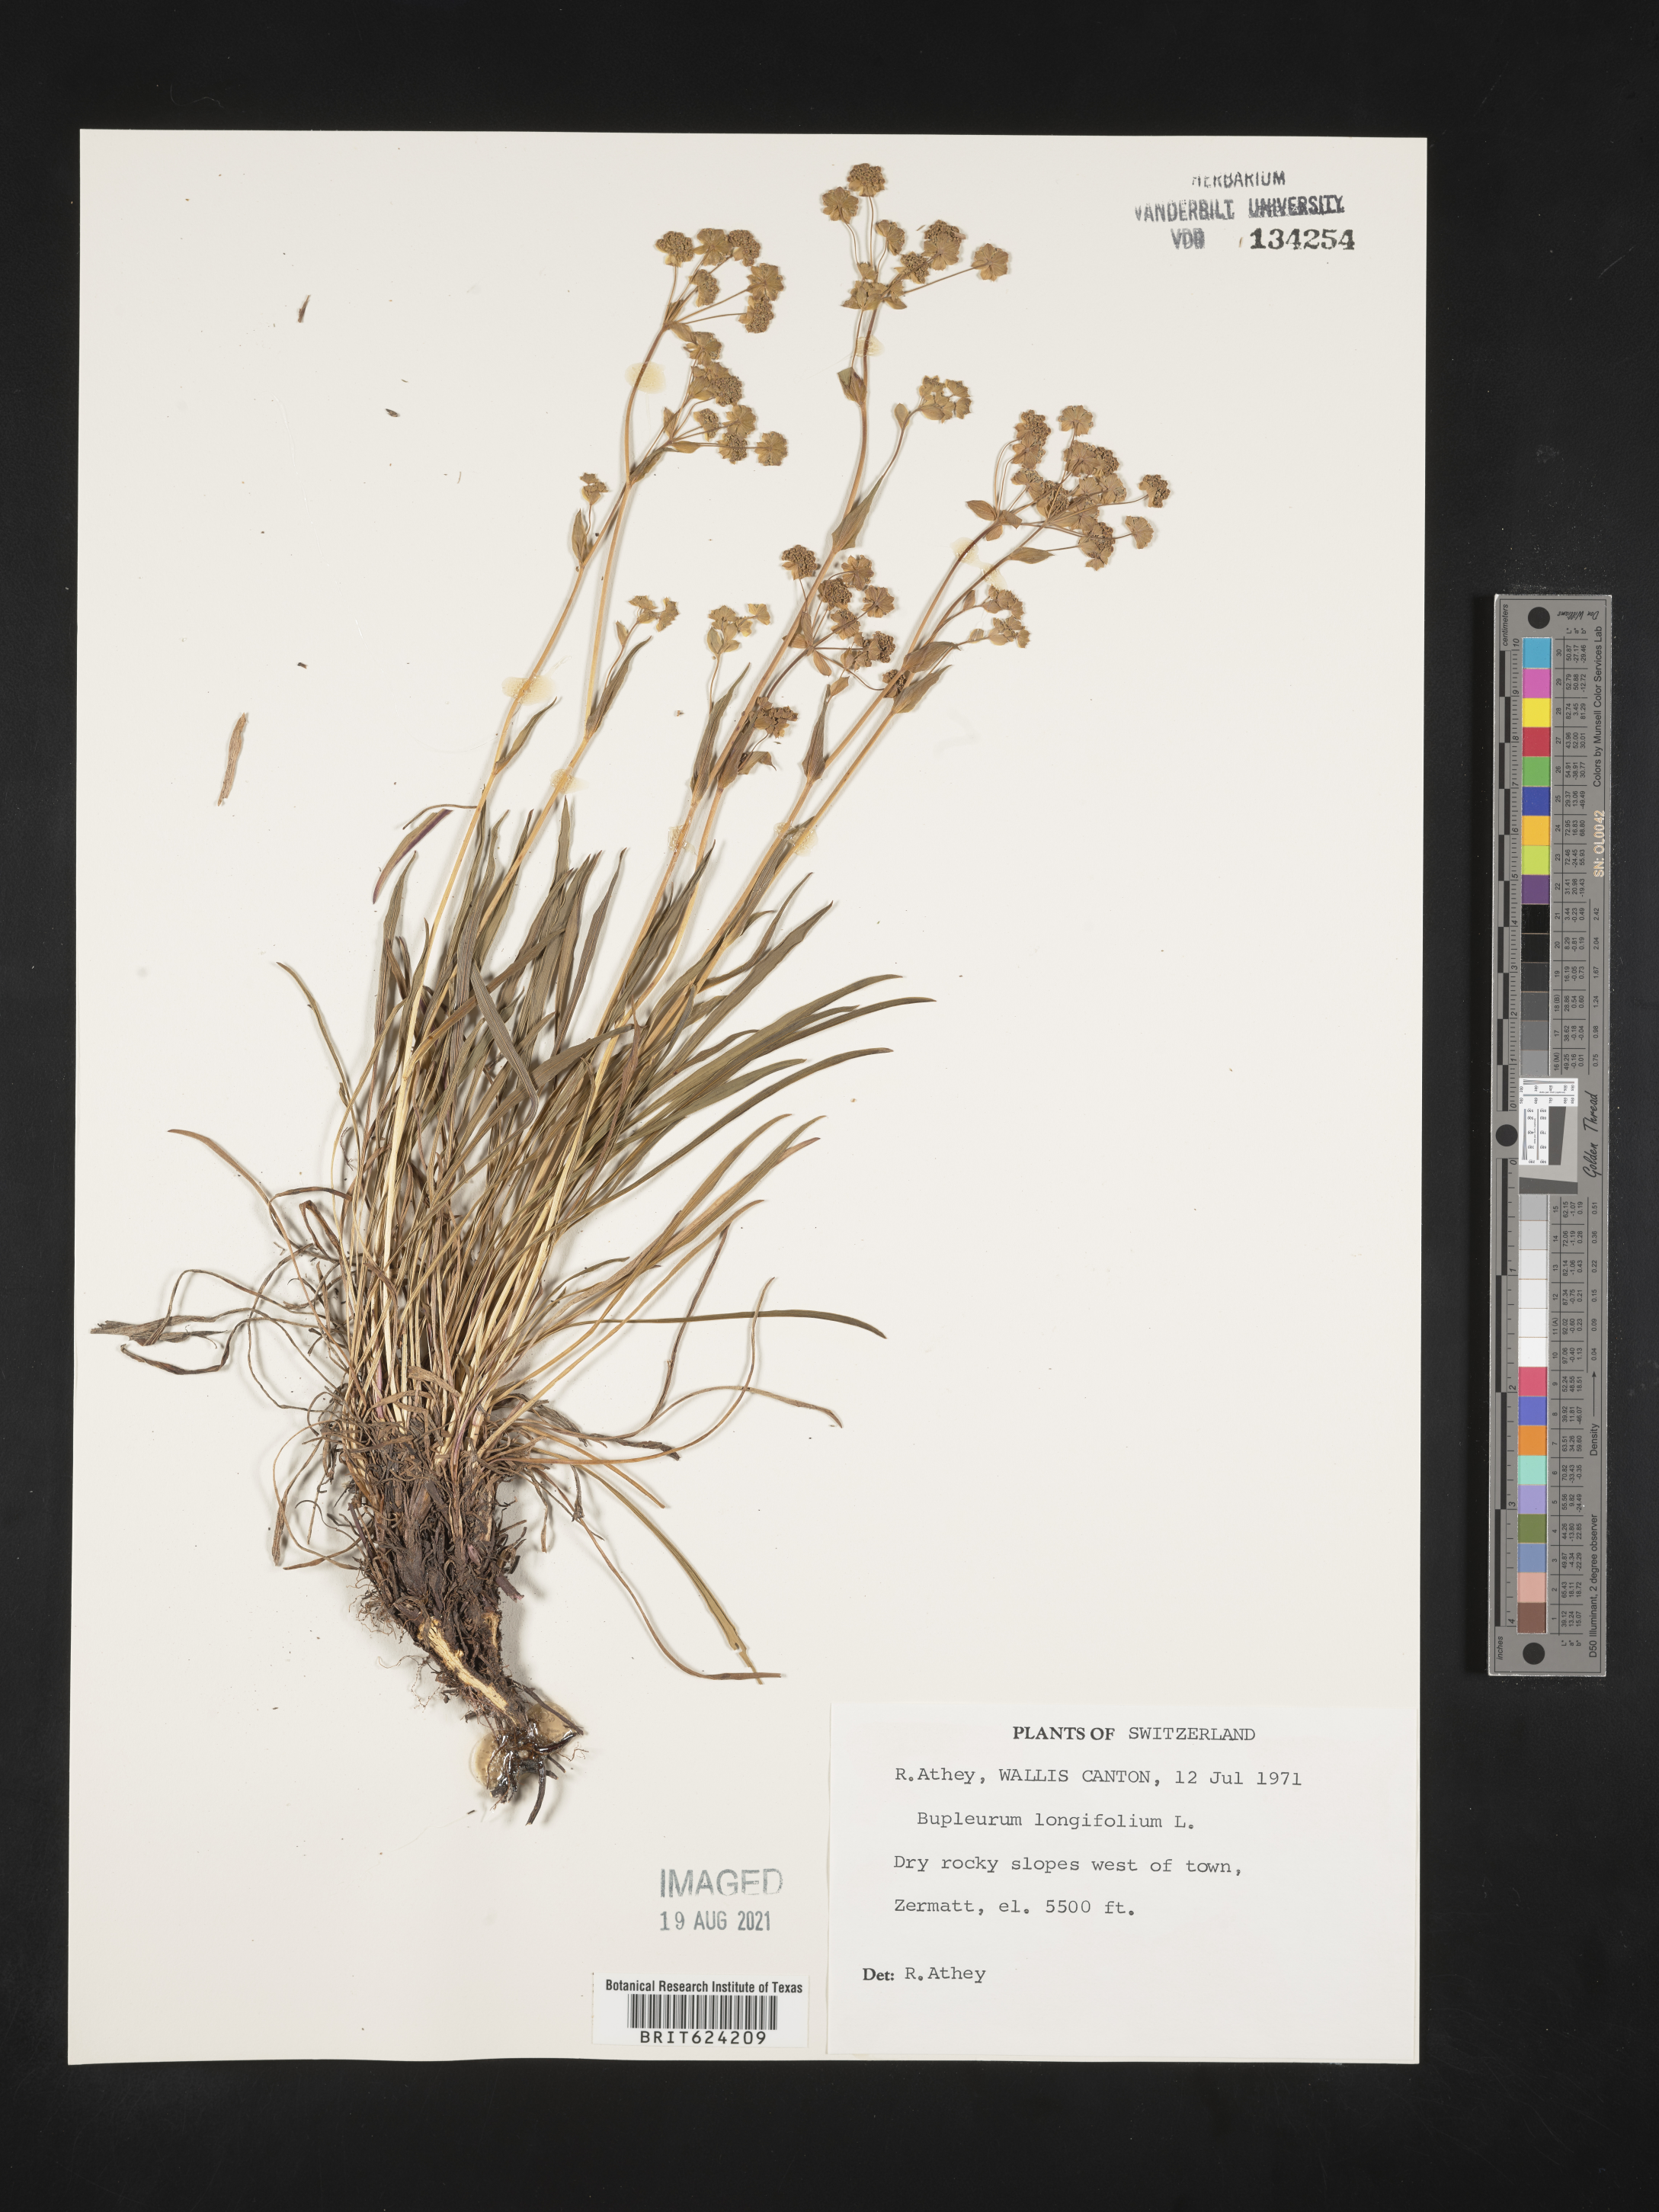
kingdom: Plantae
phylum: Tracheophyta
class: Magnoliopsida
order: Apiales
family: Apiaceae
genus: Bupleurum
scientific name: Bupleurum longifolium
